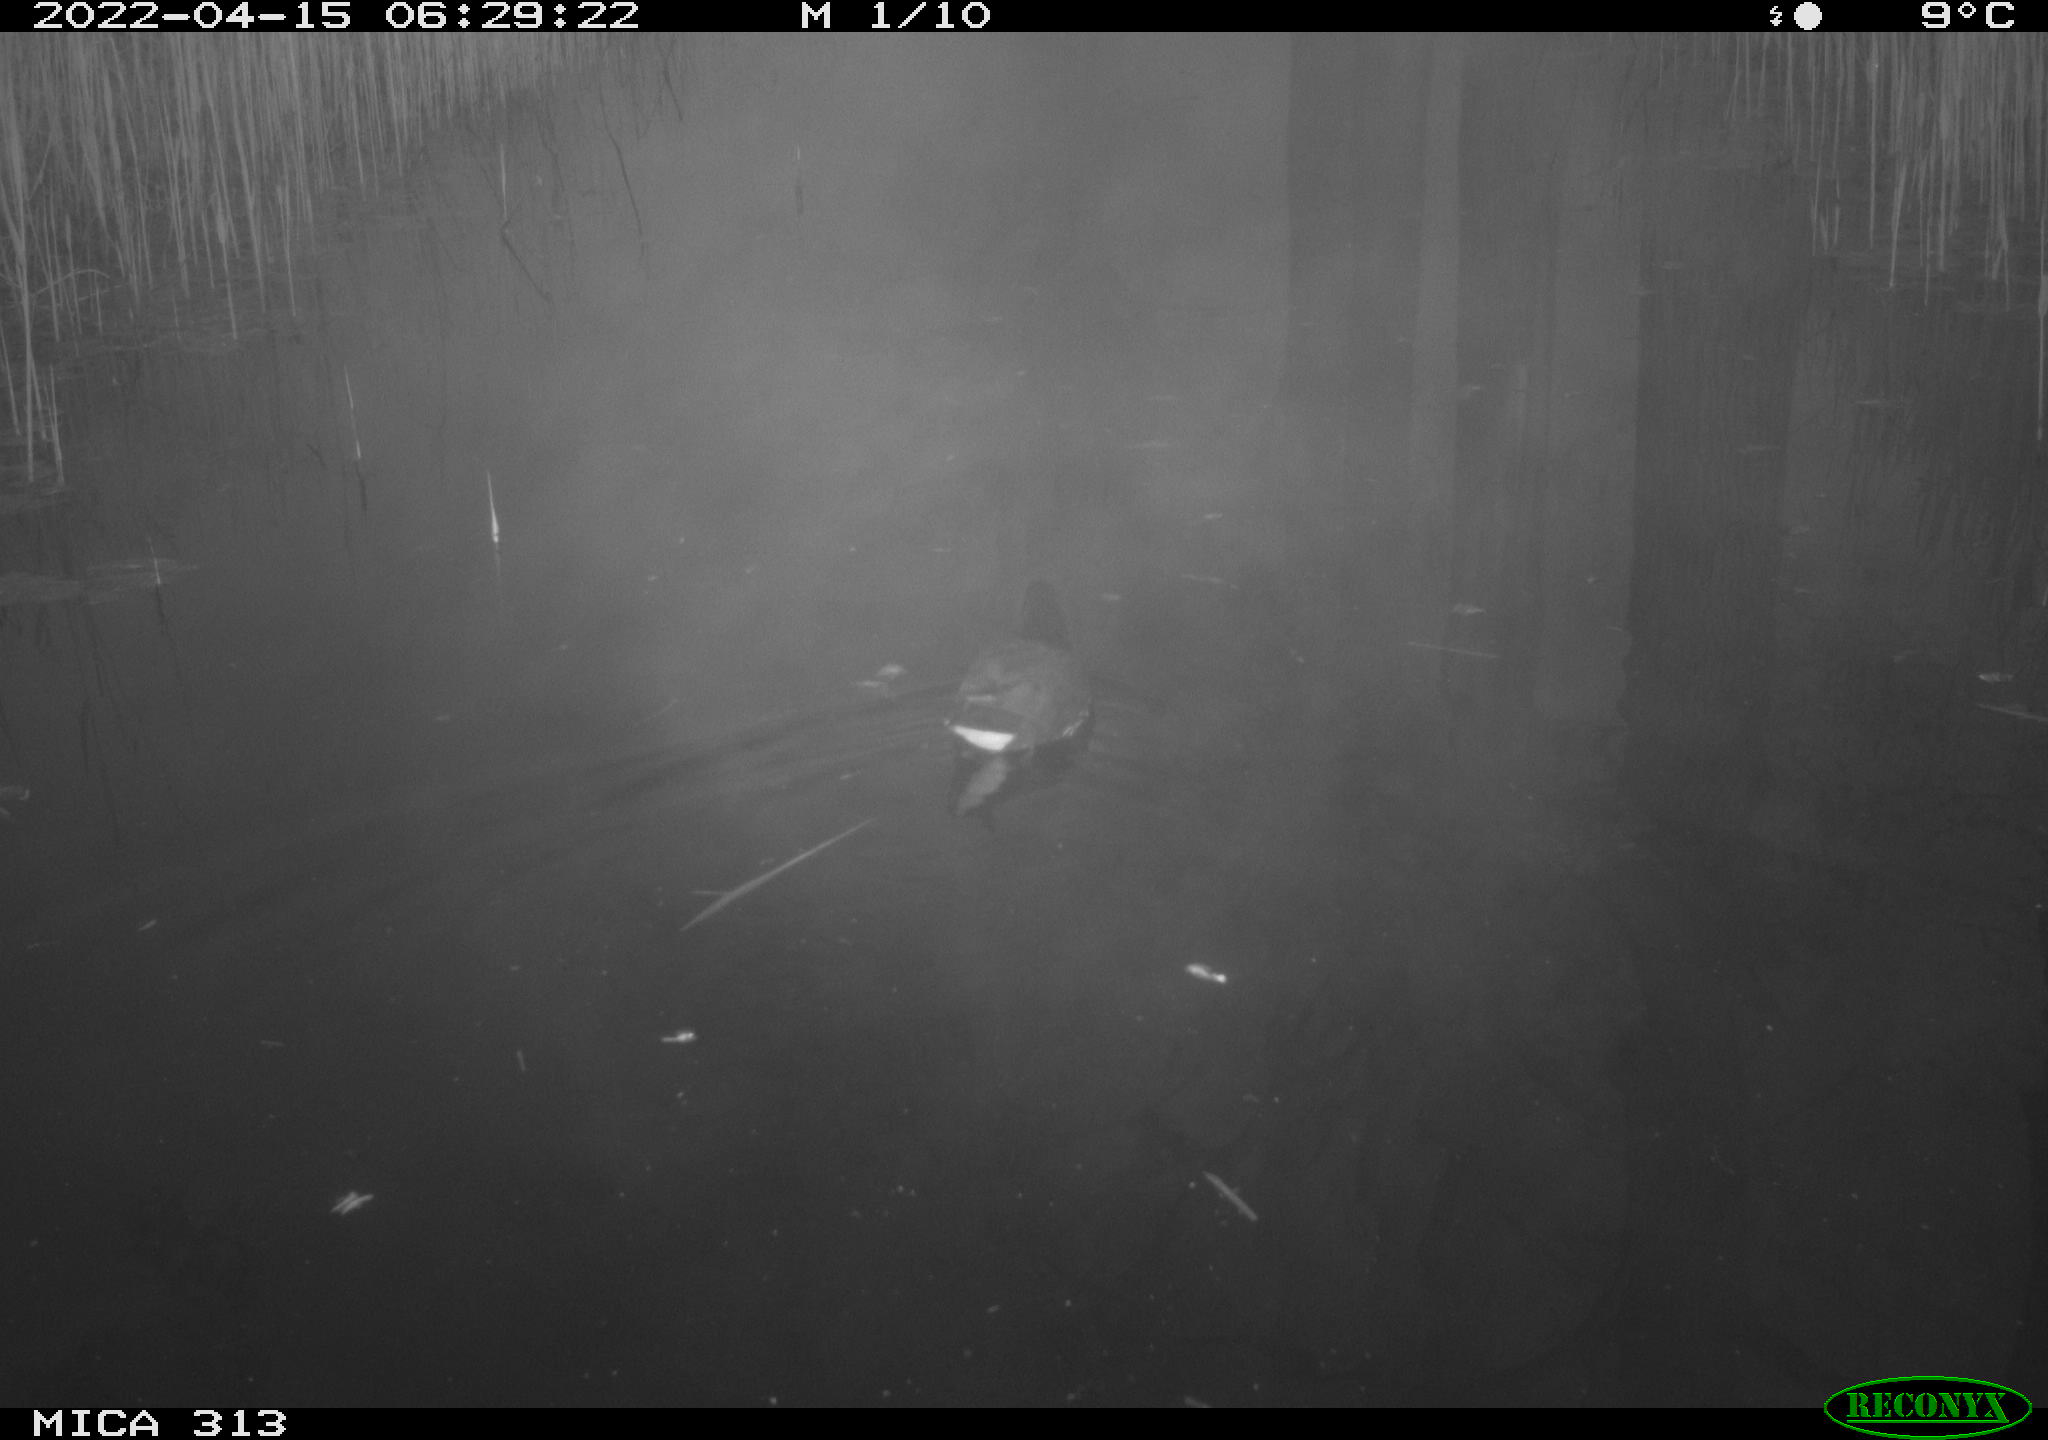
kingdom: Animalia
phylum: Chordata
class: Aves
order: Gruiformes
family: Rallidae
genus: Gallinula
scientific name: Gallinula chloropus
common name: Common moorhen
